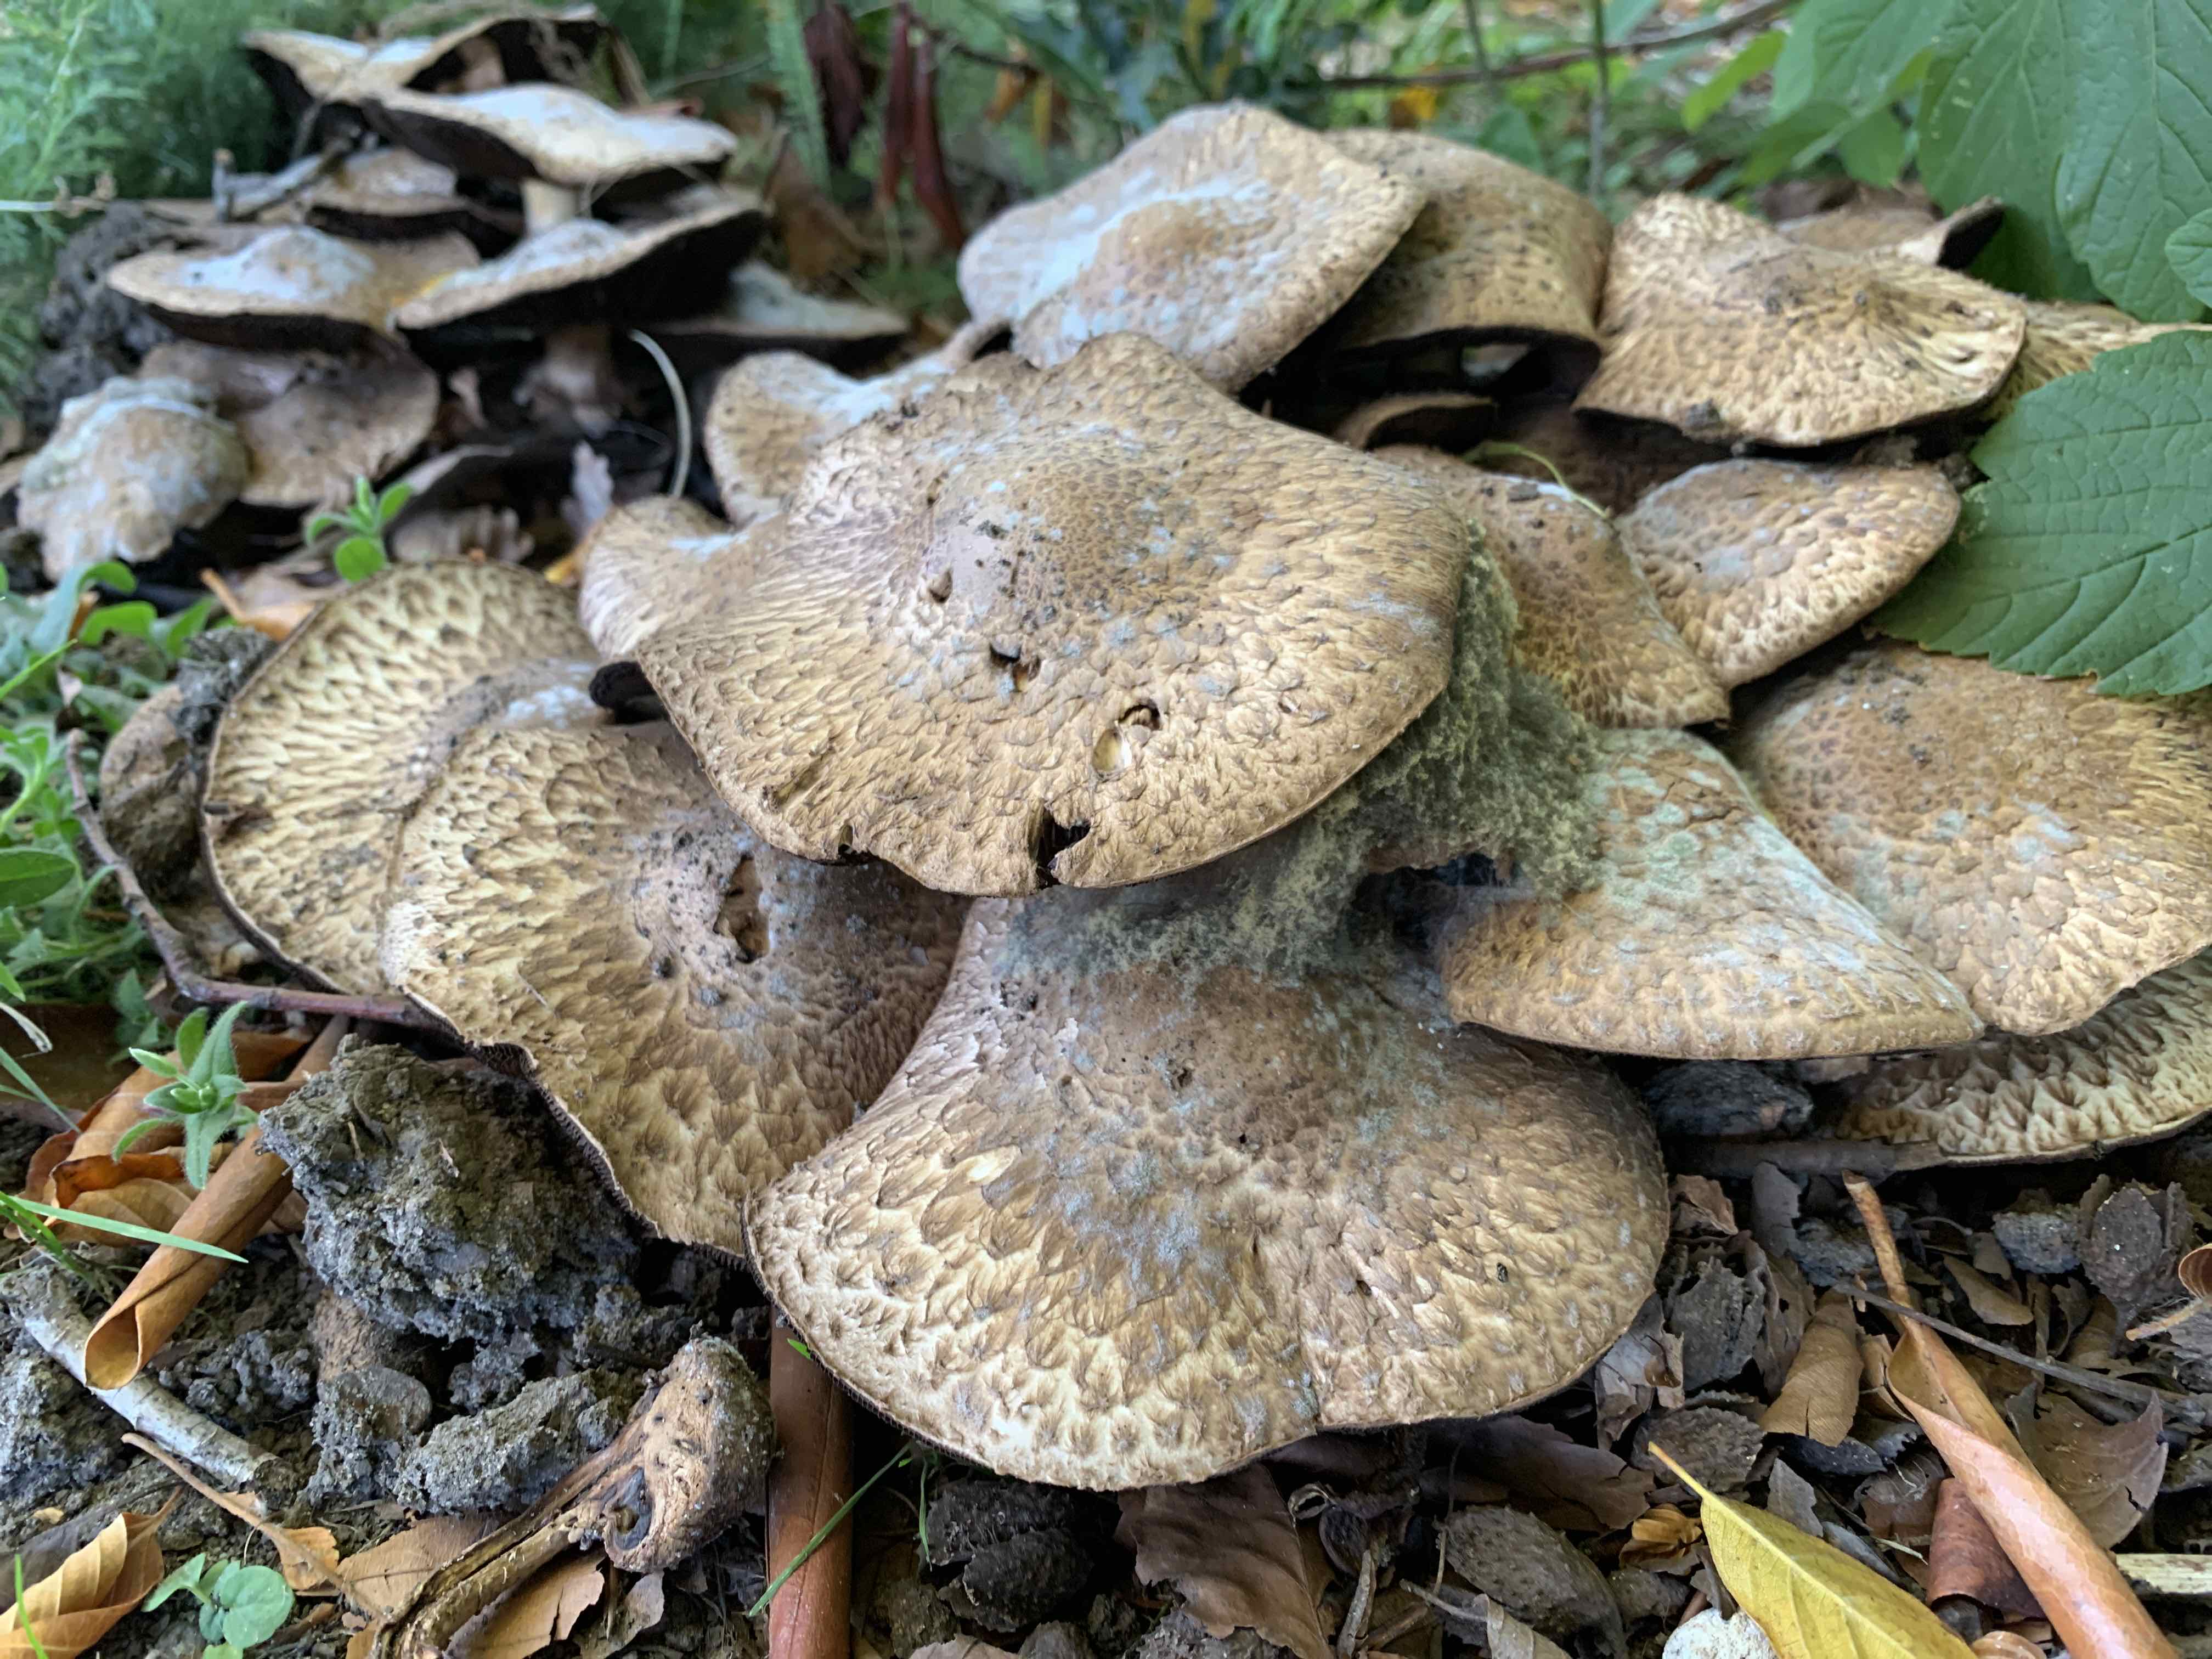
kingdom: Fungi
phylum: Basidiomycota
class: Agaricomycetes
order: Agaricales
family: Agaricaceae
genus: Agaricus
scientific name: Agaricus bohusii
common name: krumskællet champignon
